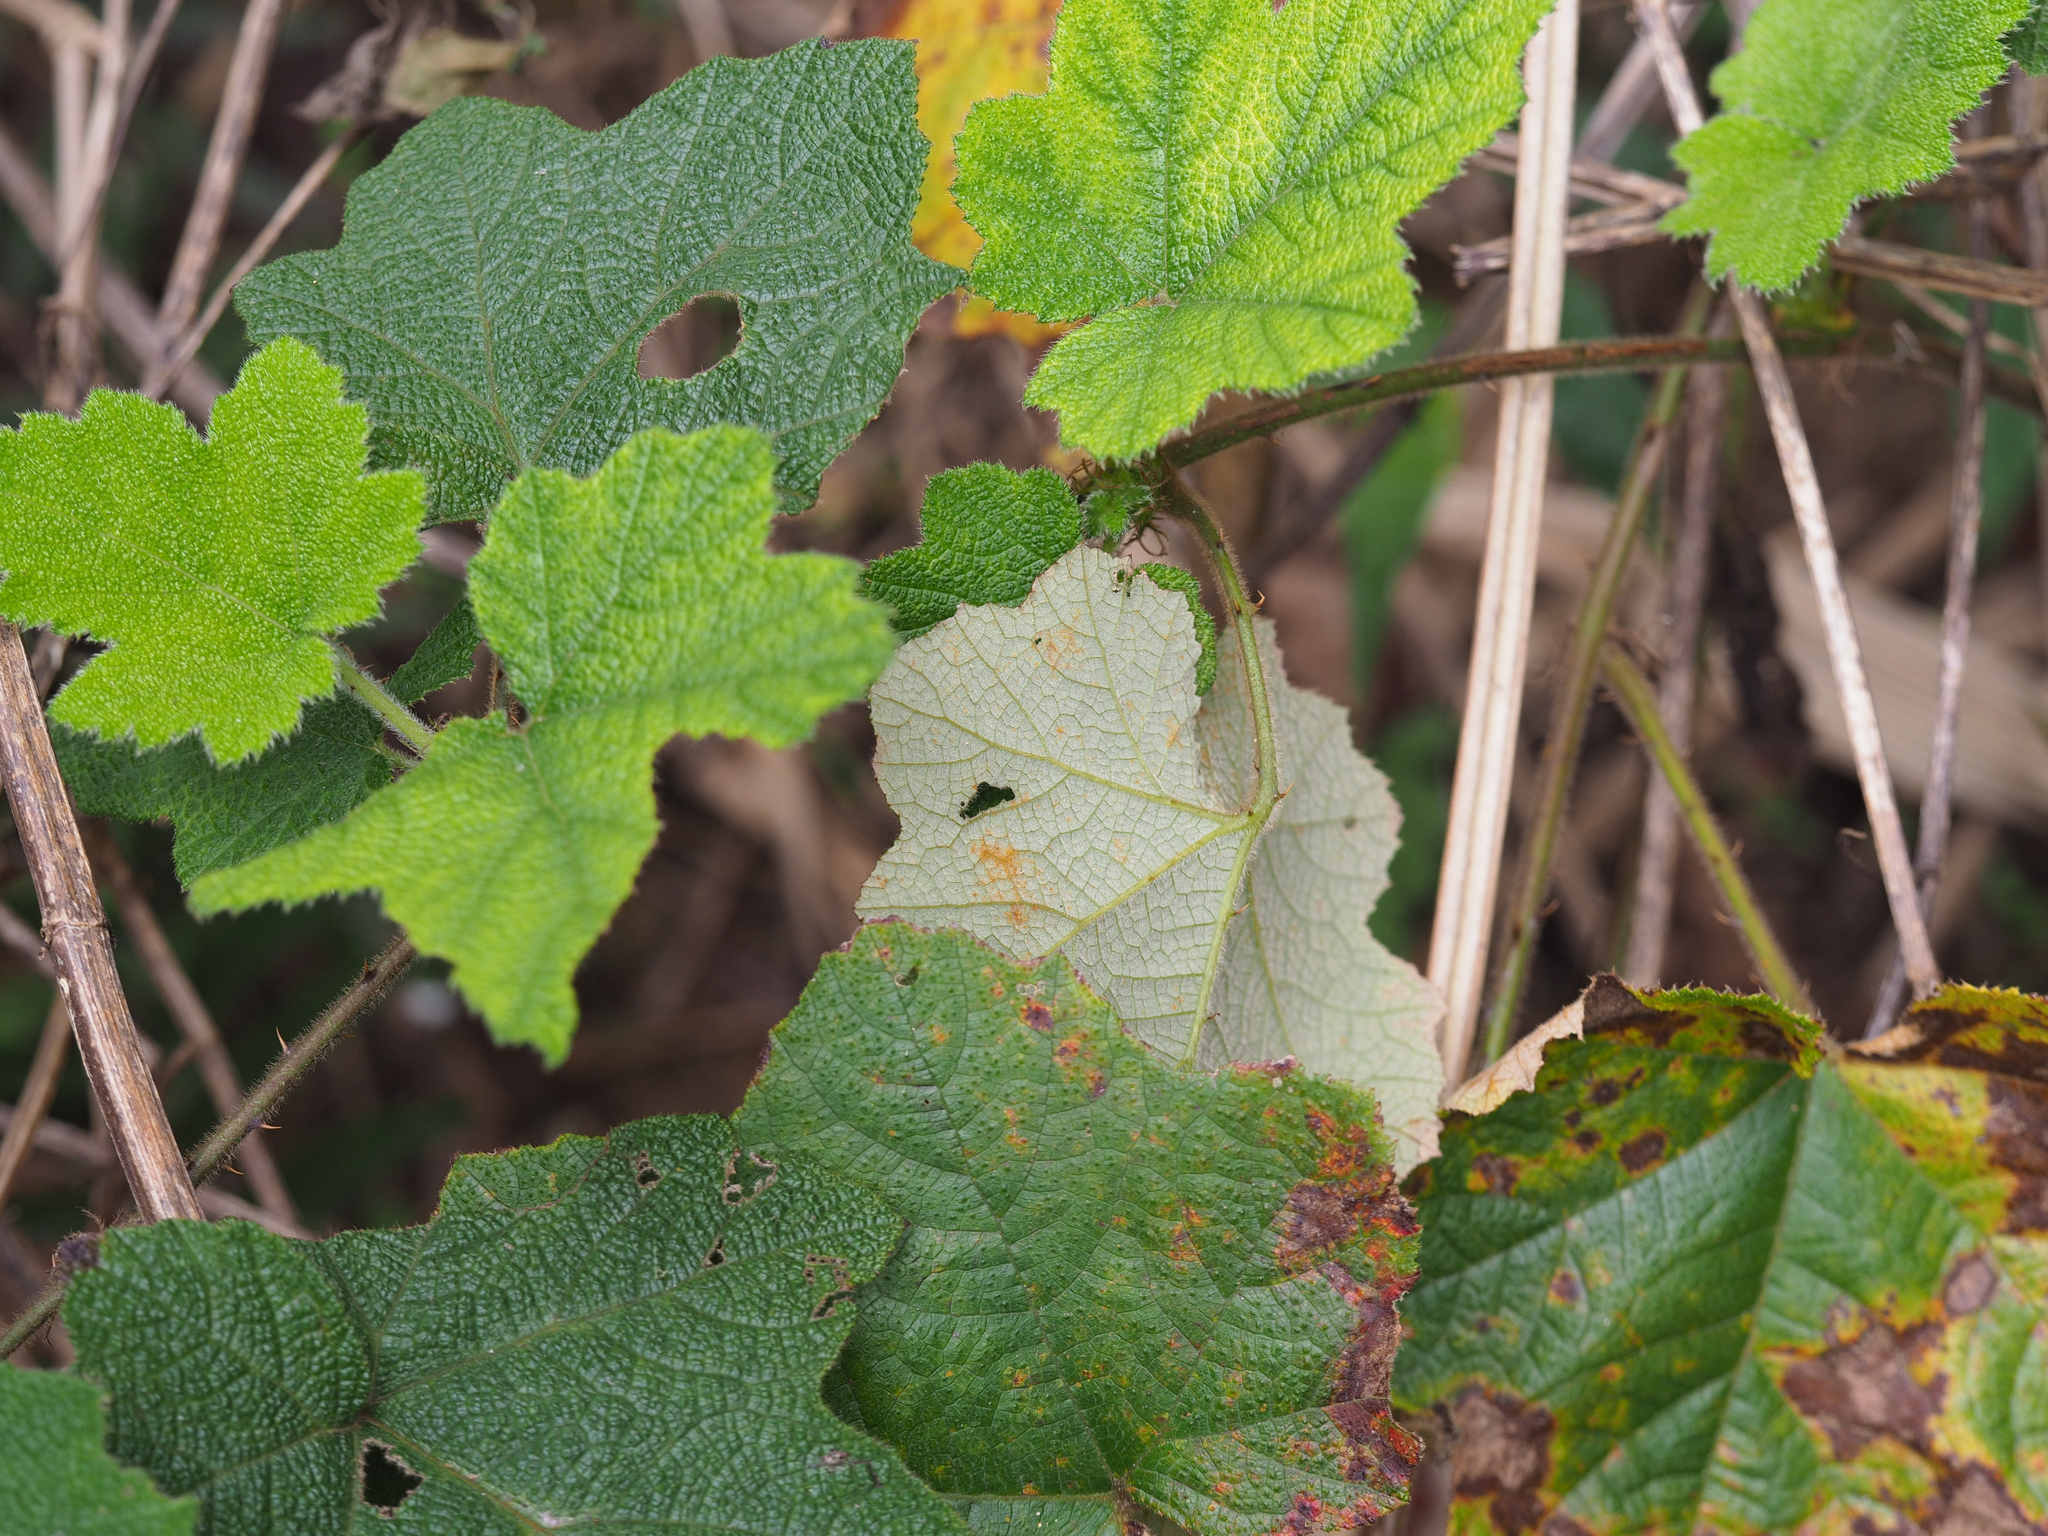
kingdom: Plantae
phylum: Tracheophyta
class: Magnoliopsida
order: Rosales
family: Rosaceae
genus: Rubus
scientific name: Rubus reflexus
